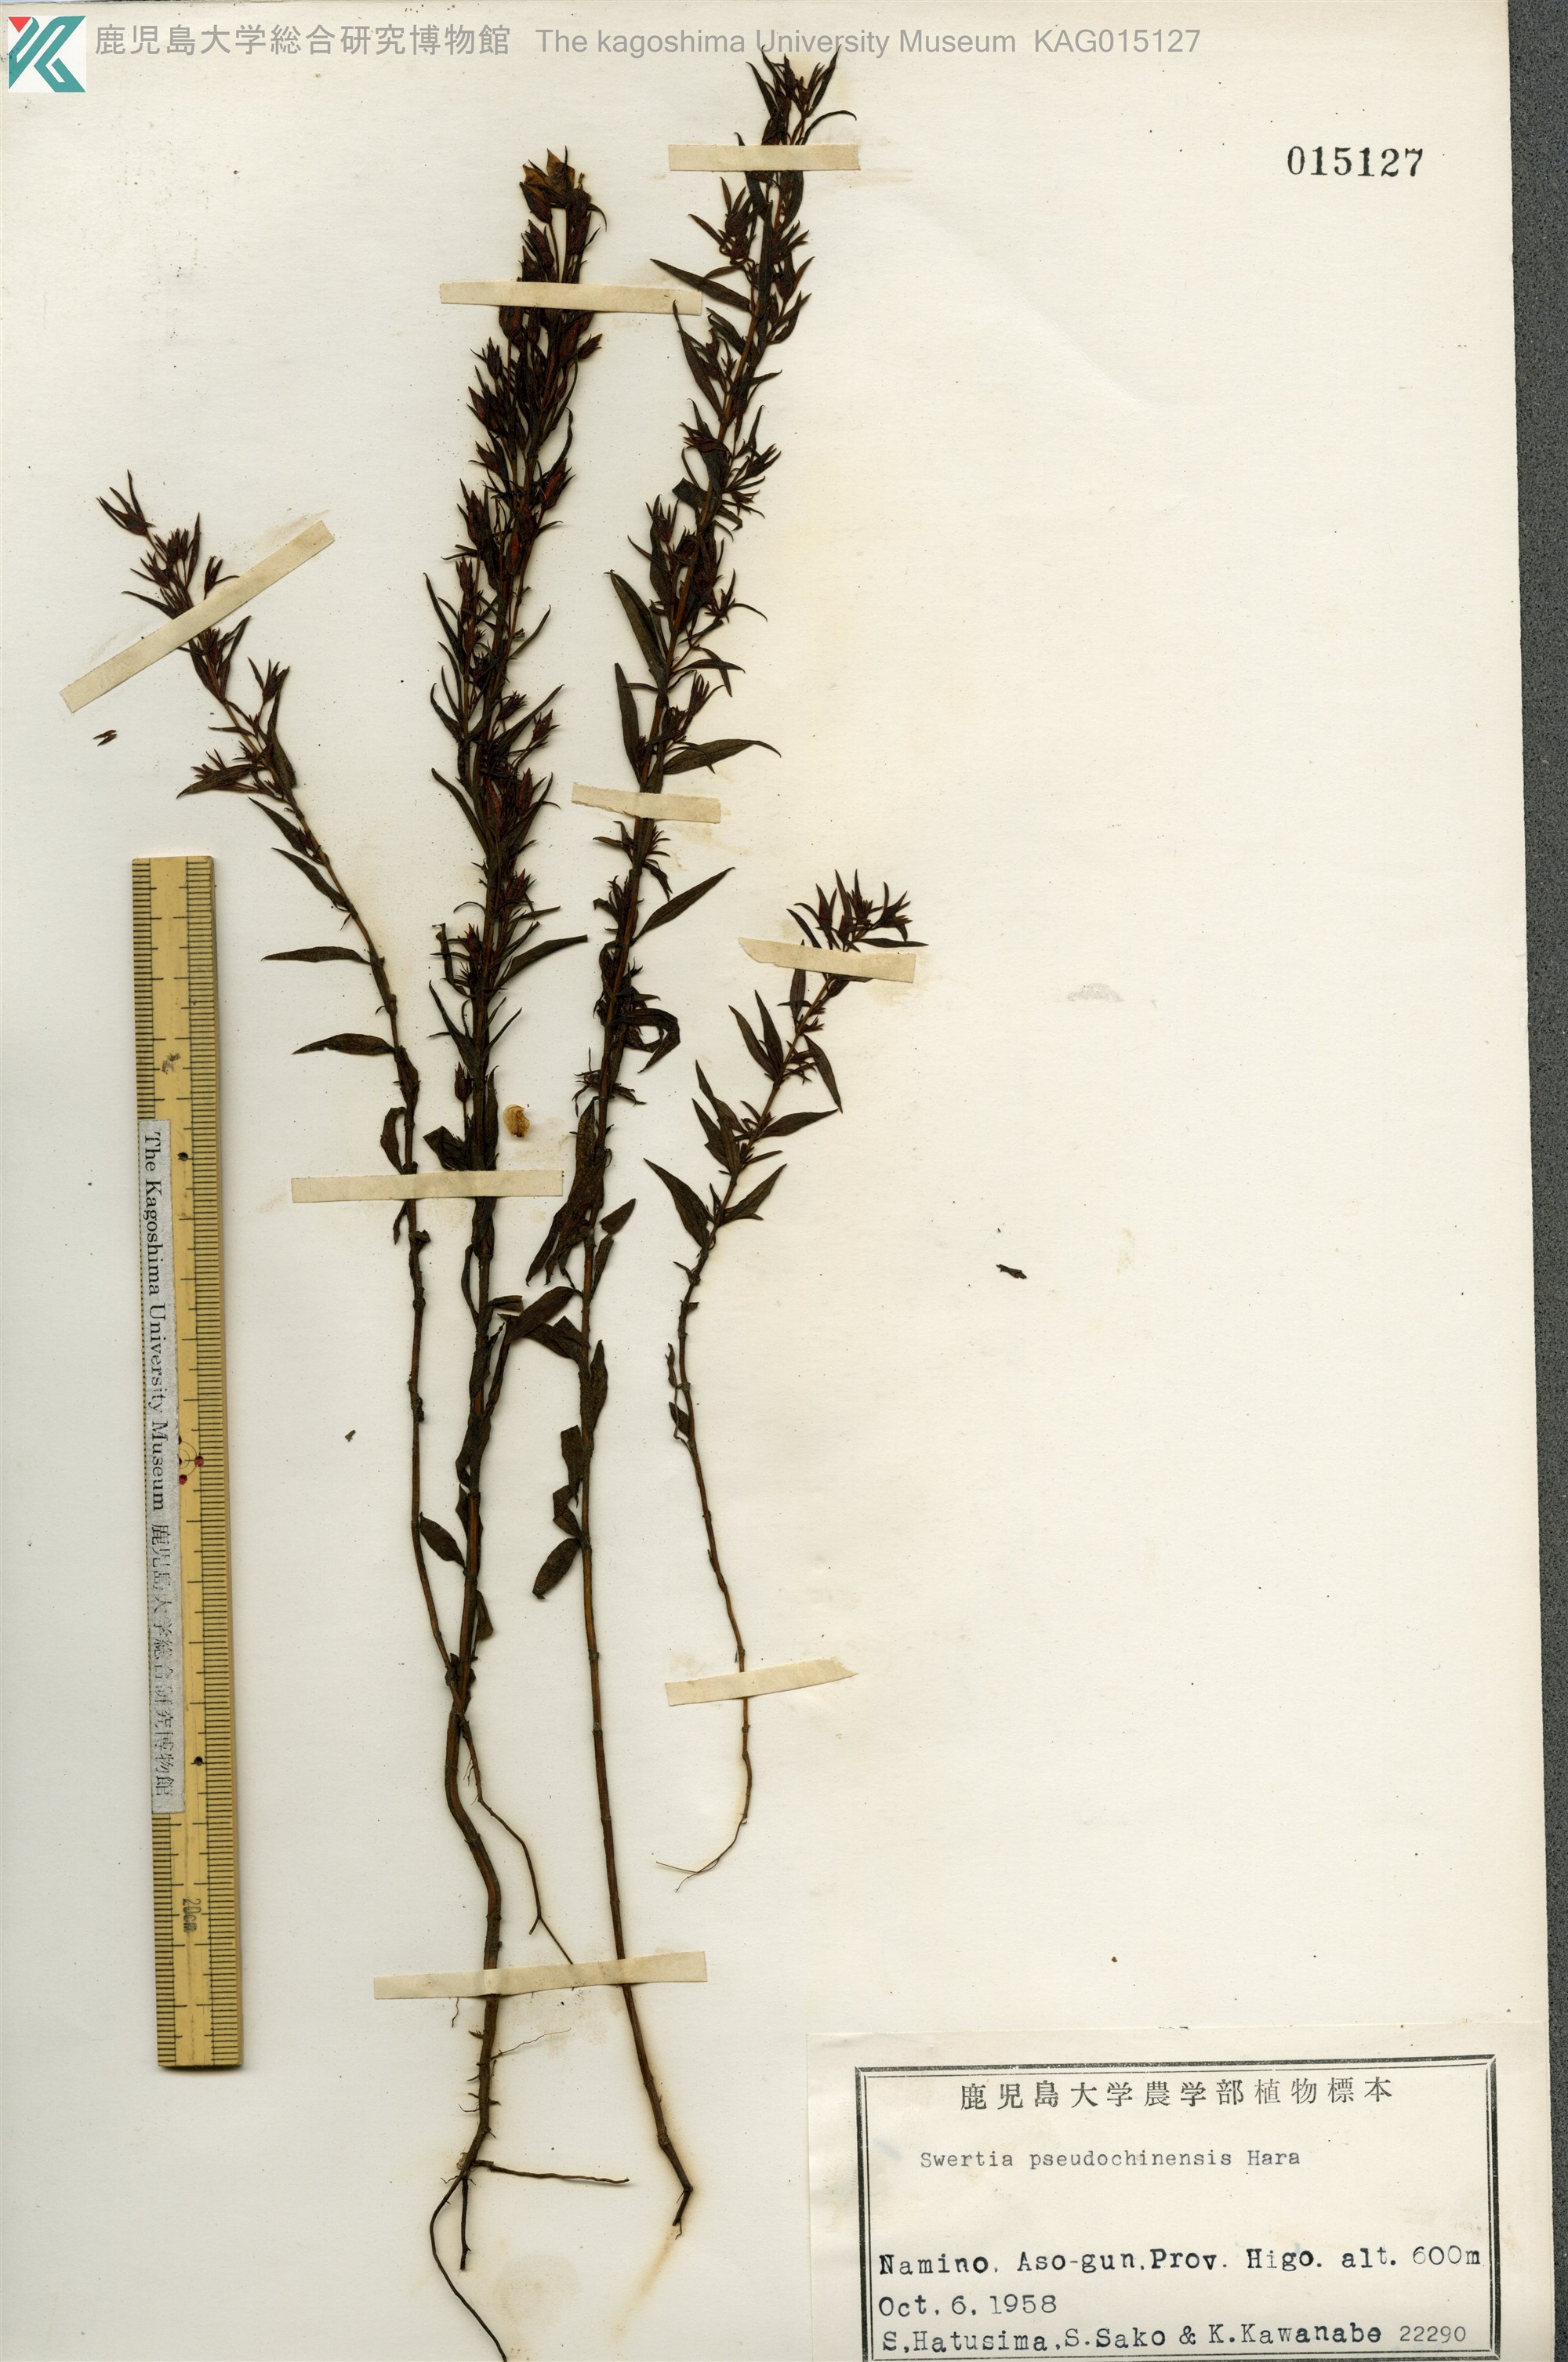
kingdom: Plantae
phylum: Tracheophyta
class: Magnoliopsida
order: Gentianales
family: Gentianaceae
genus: Swertia
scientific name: Swertia pseudochinensis
